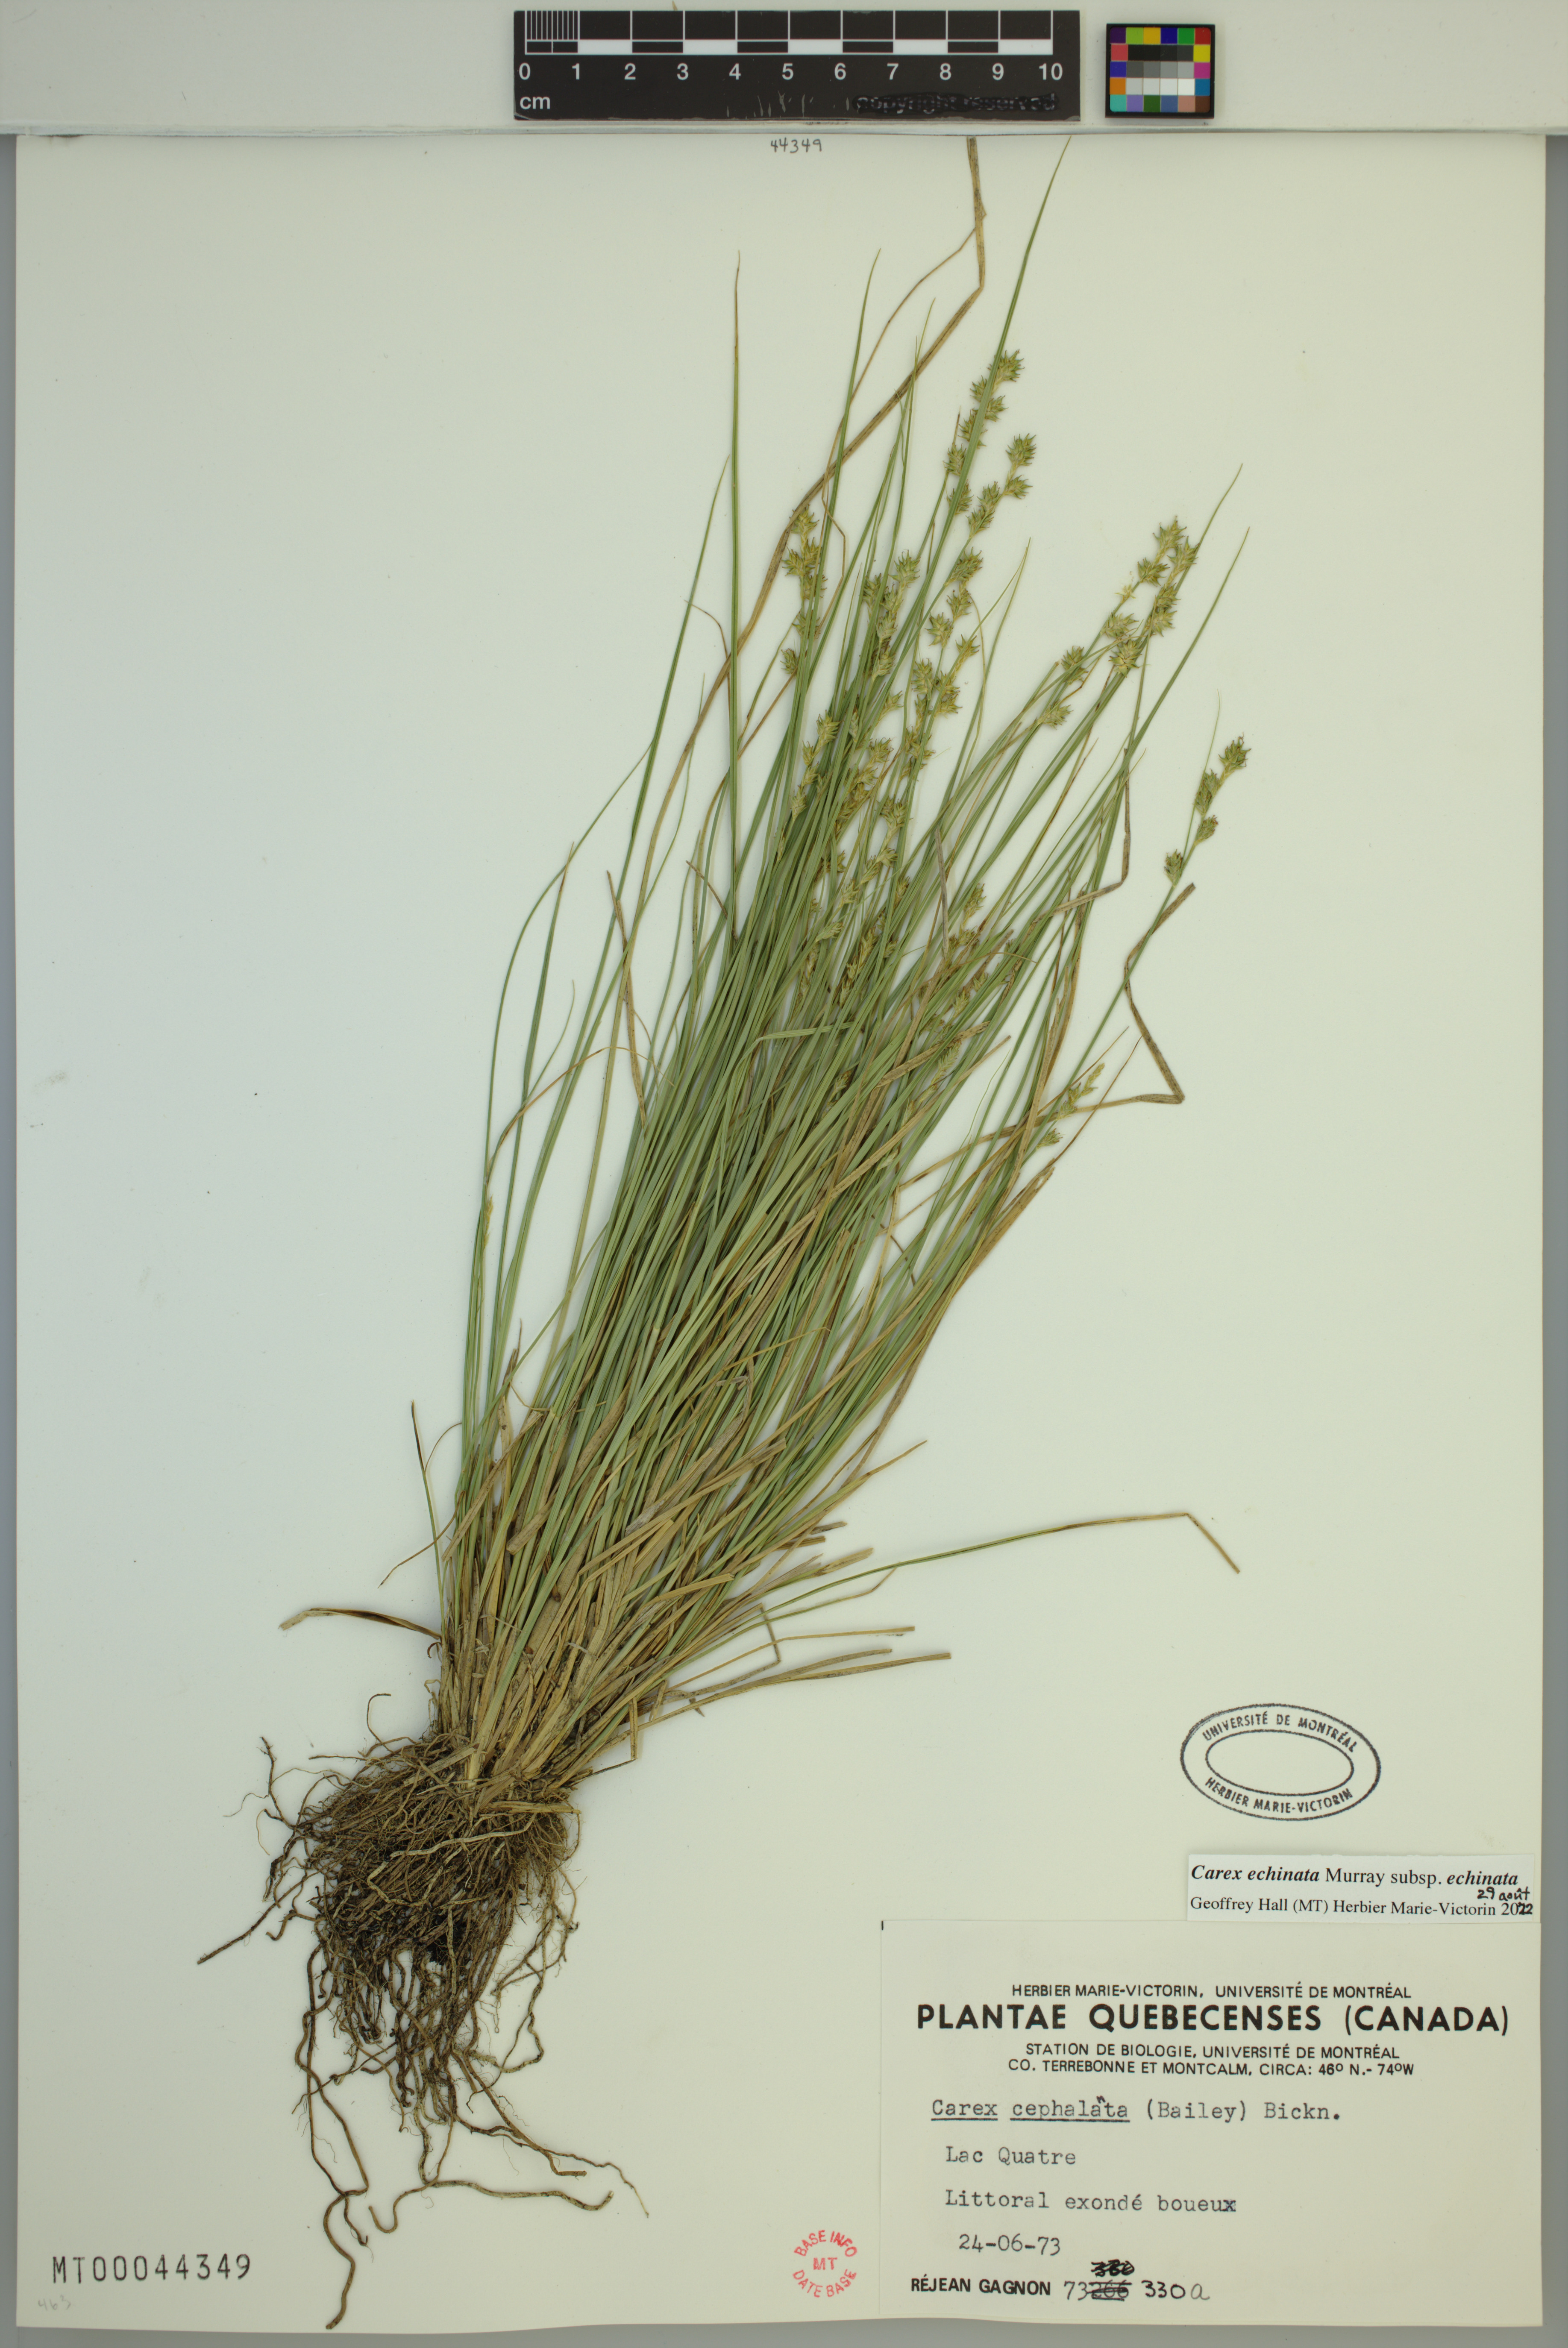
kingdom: Plantae
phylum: Tracheophyta
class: Liliopsida
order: Poales
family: Cyperaceae
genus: Carex
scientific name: Carex echinata
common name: Star sedge
